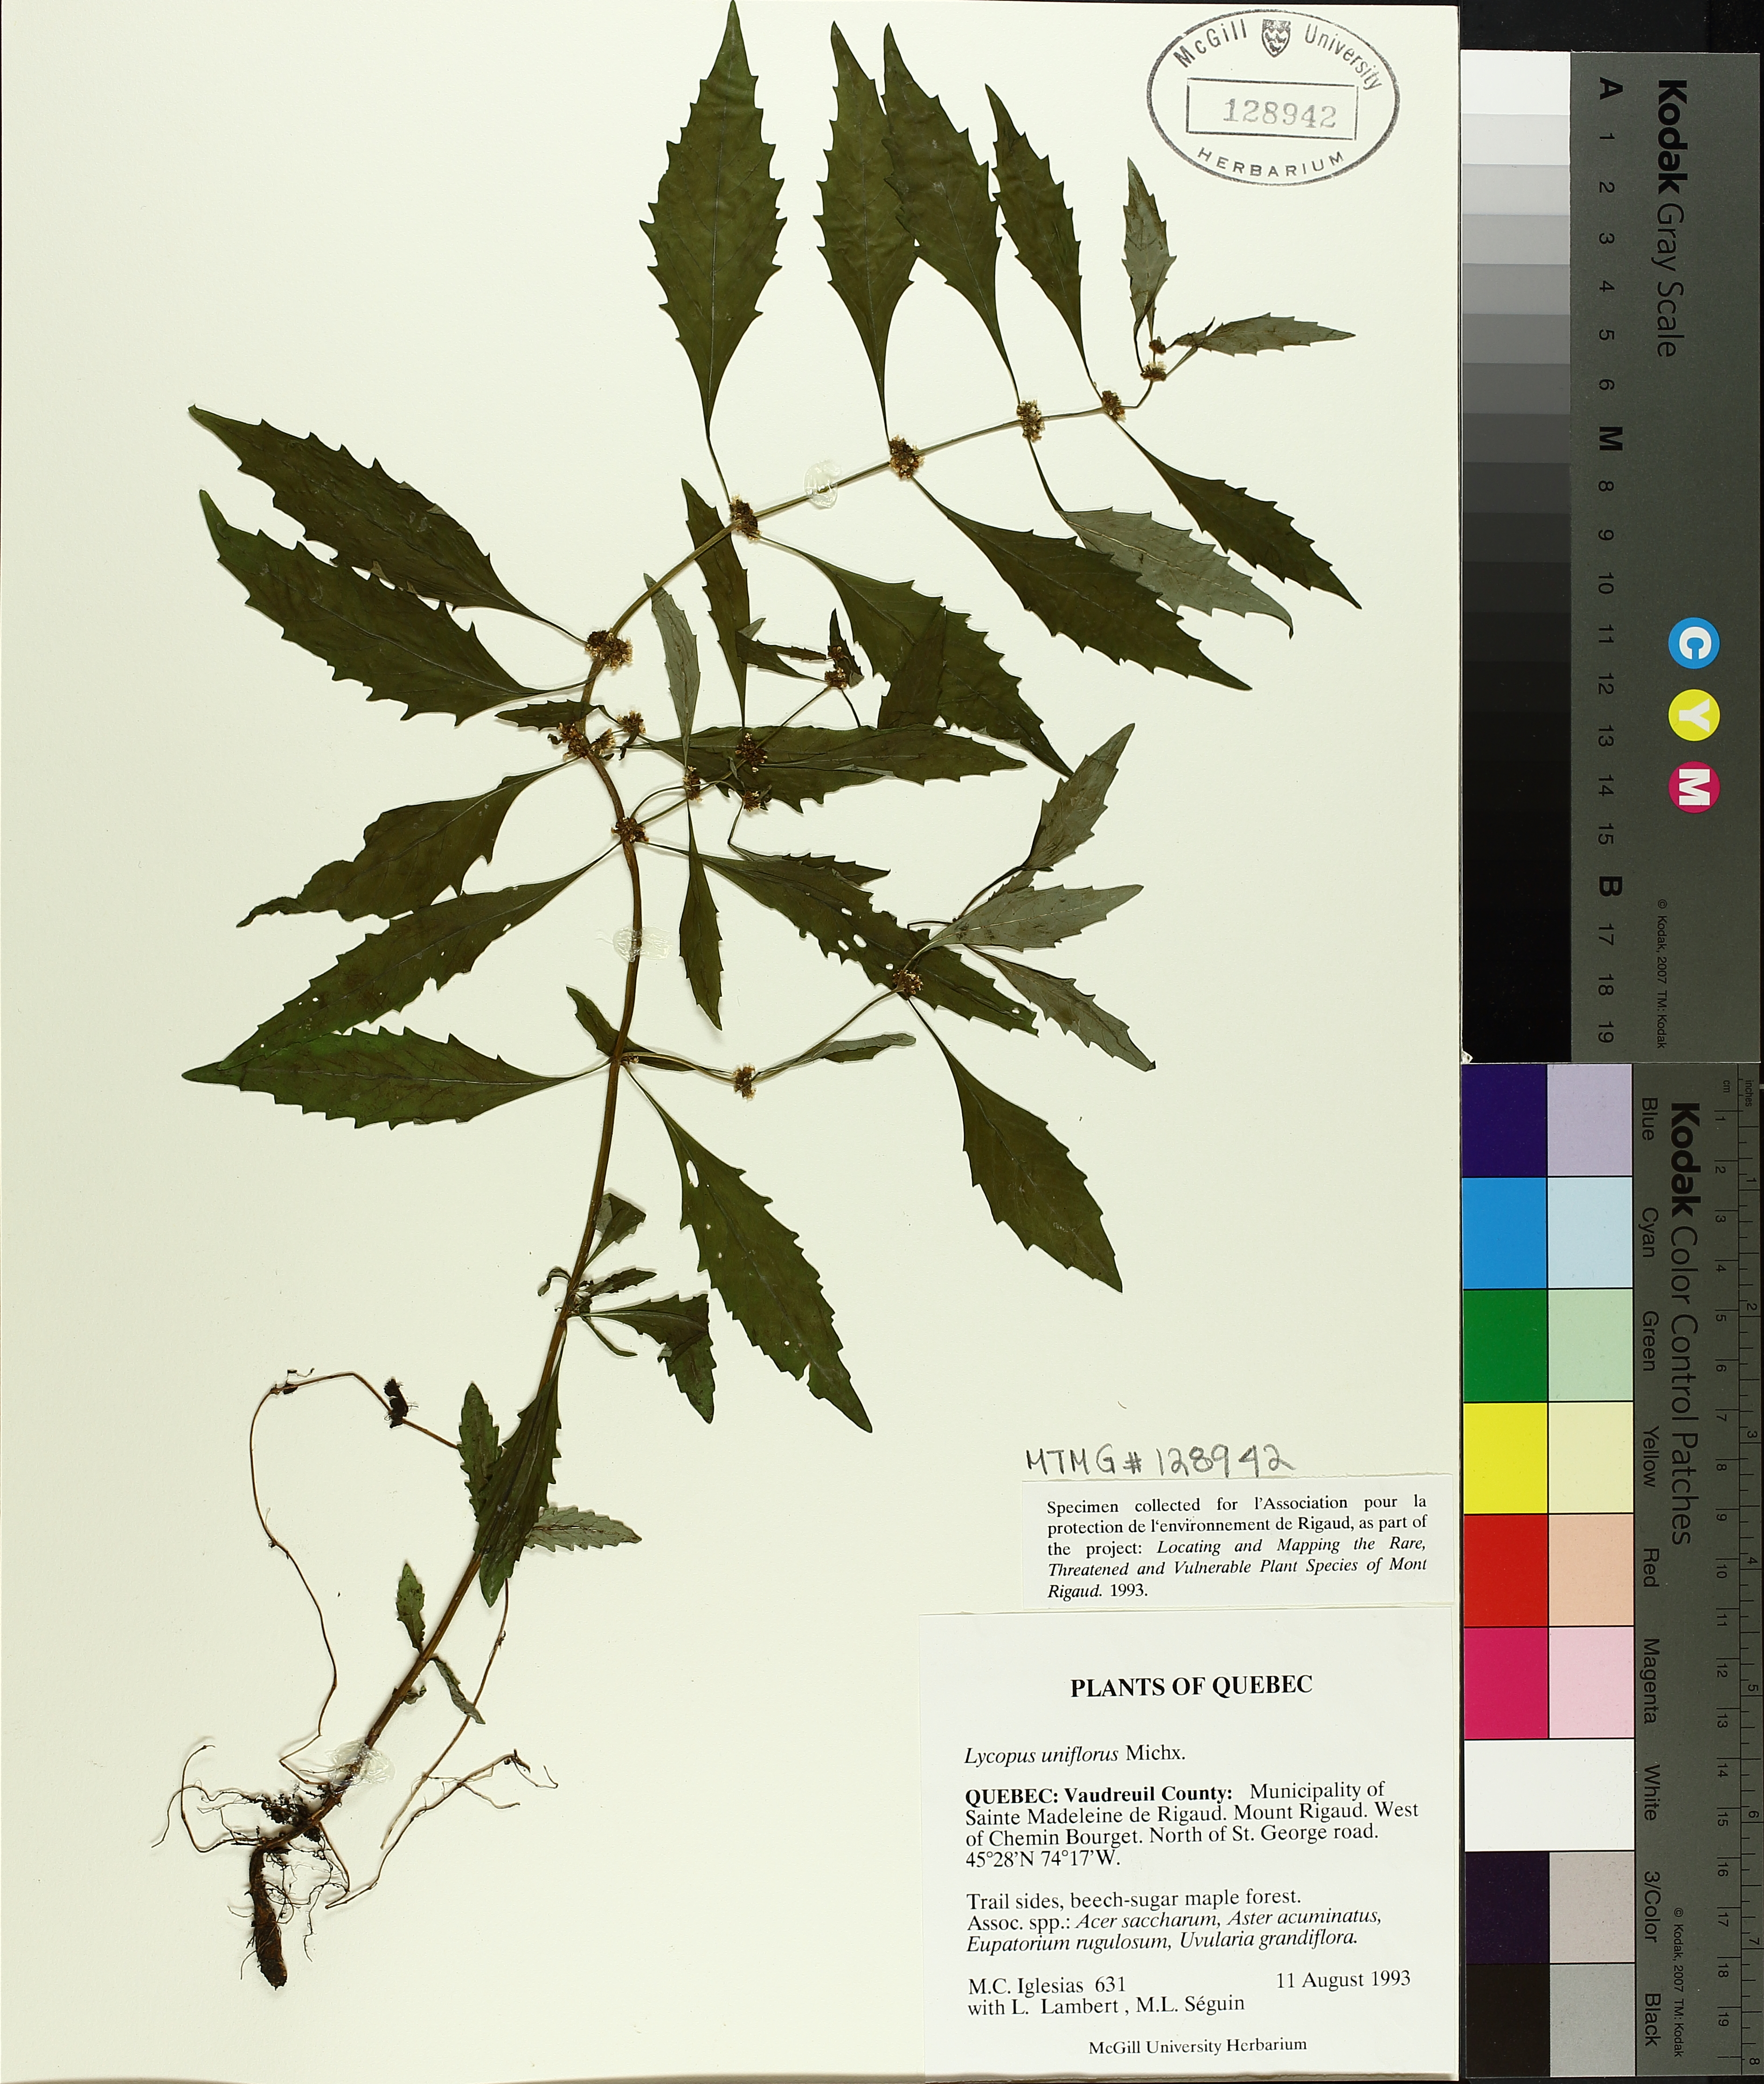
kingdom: Plantae
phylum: Tracheophyta
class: Magnoliopsida
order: Lamiales
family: Lamiaceae
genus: Lycopus
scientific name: Lycopus uniflorus
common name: Northern bugleweed
